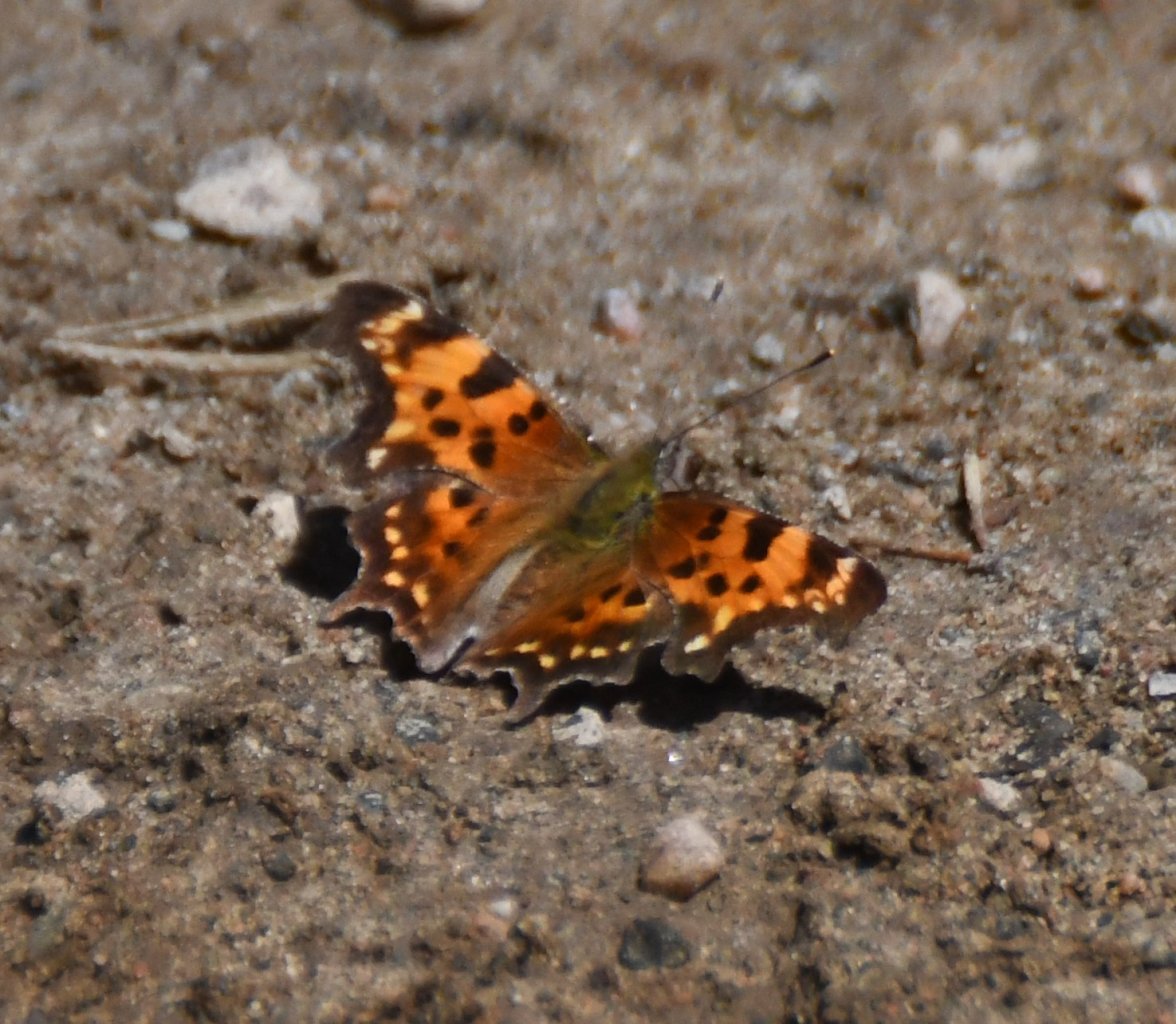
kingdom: Animalia
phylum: Arthropoda
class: Insecta
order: Lepidoptera
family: Nymphalidae
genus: Polygonia
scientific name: Polygonia faunus
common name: Green Comma
